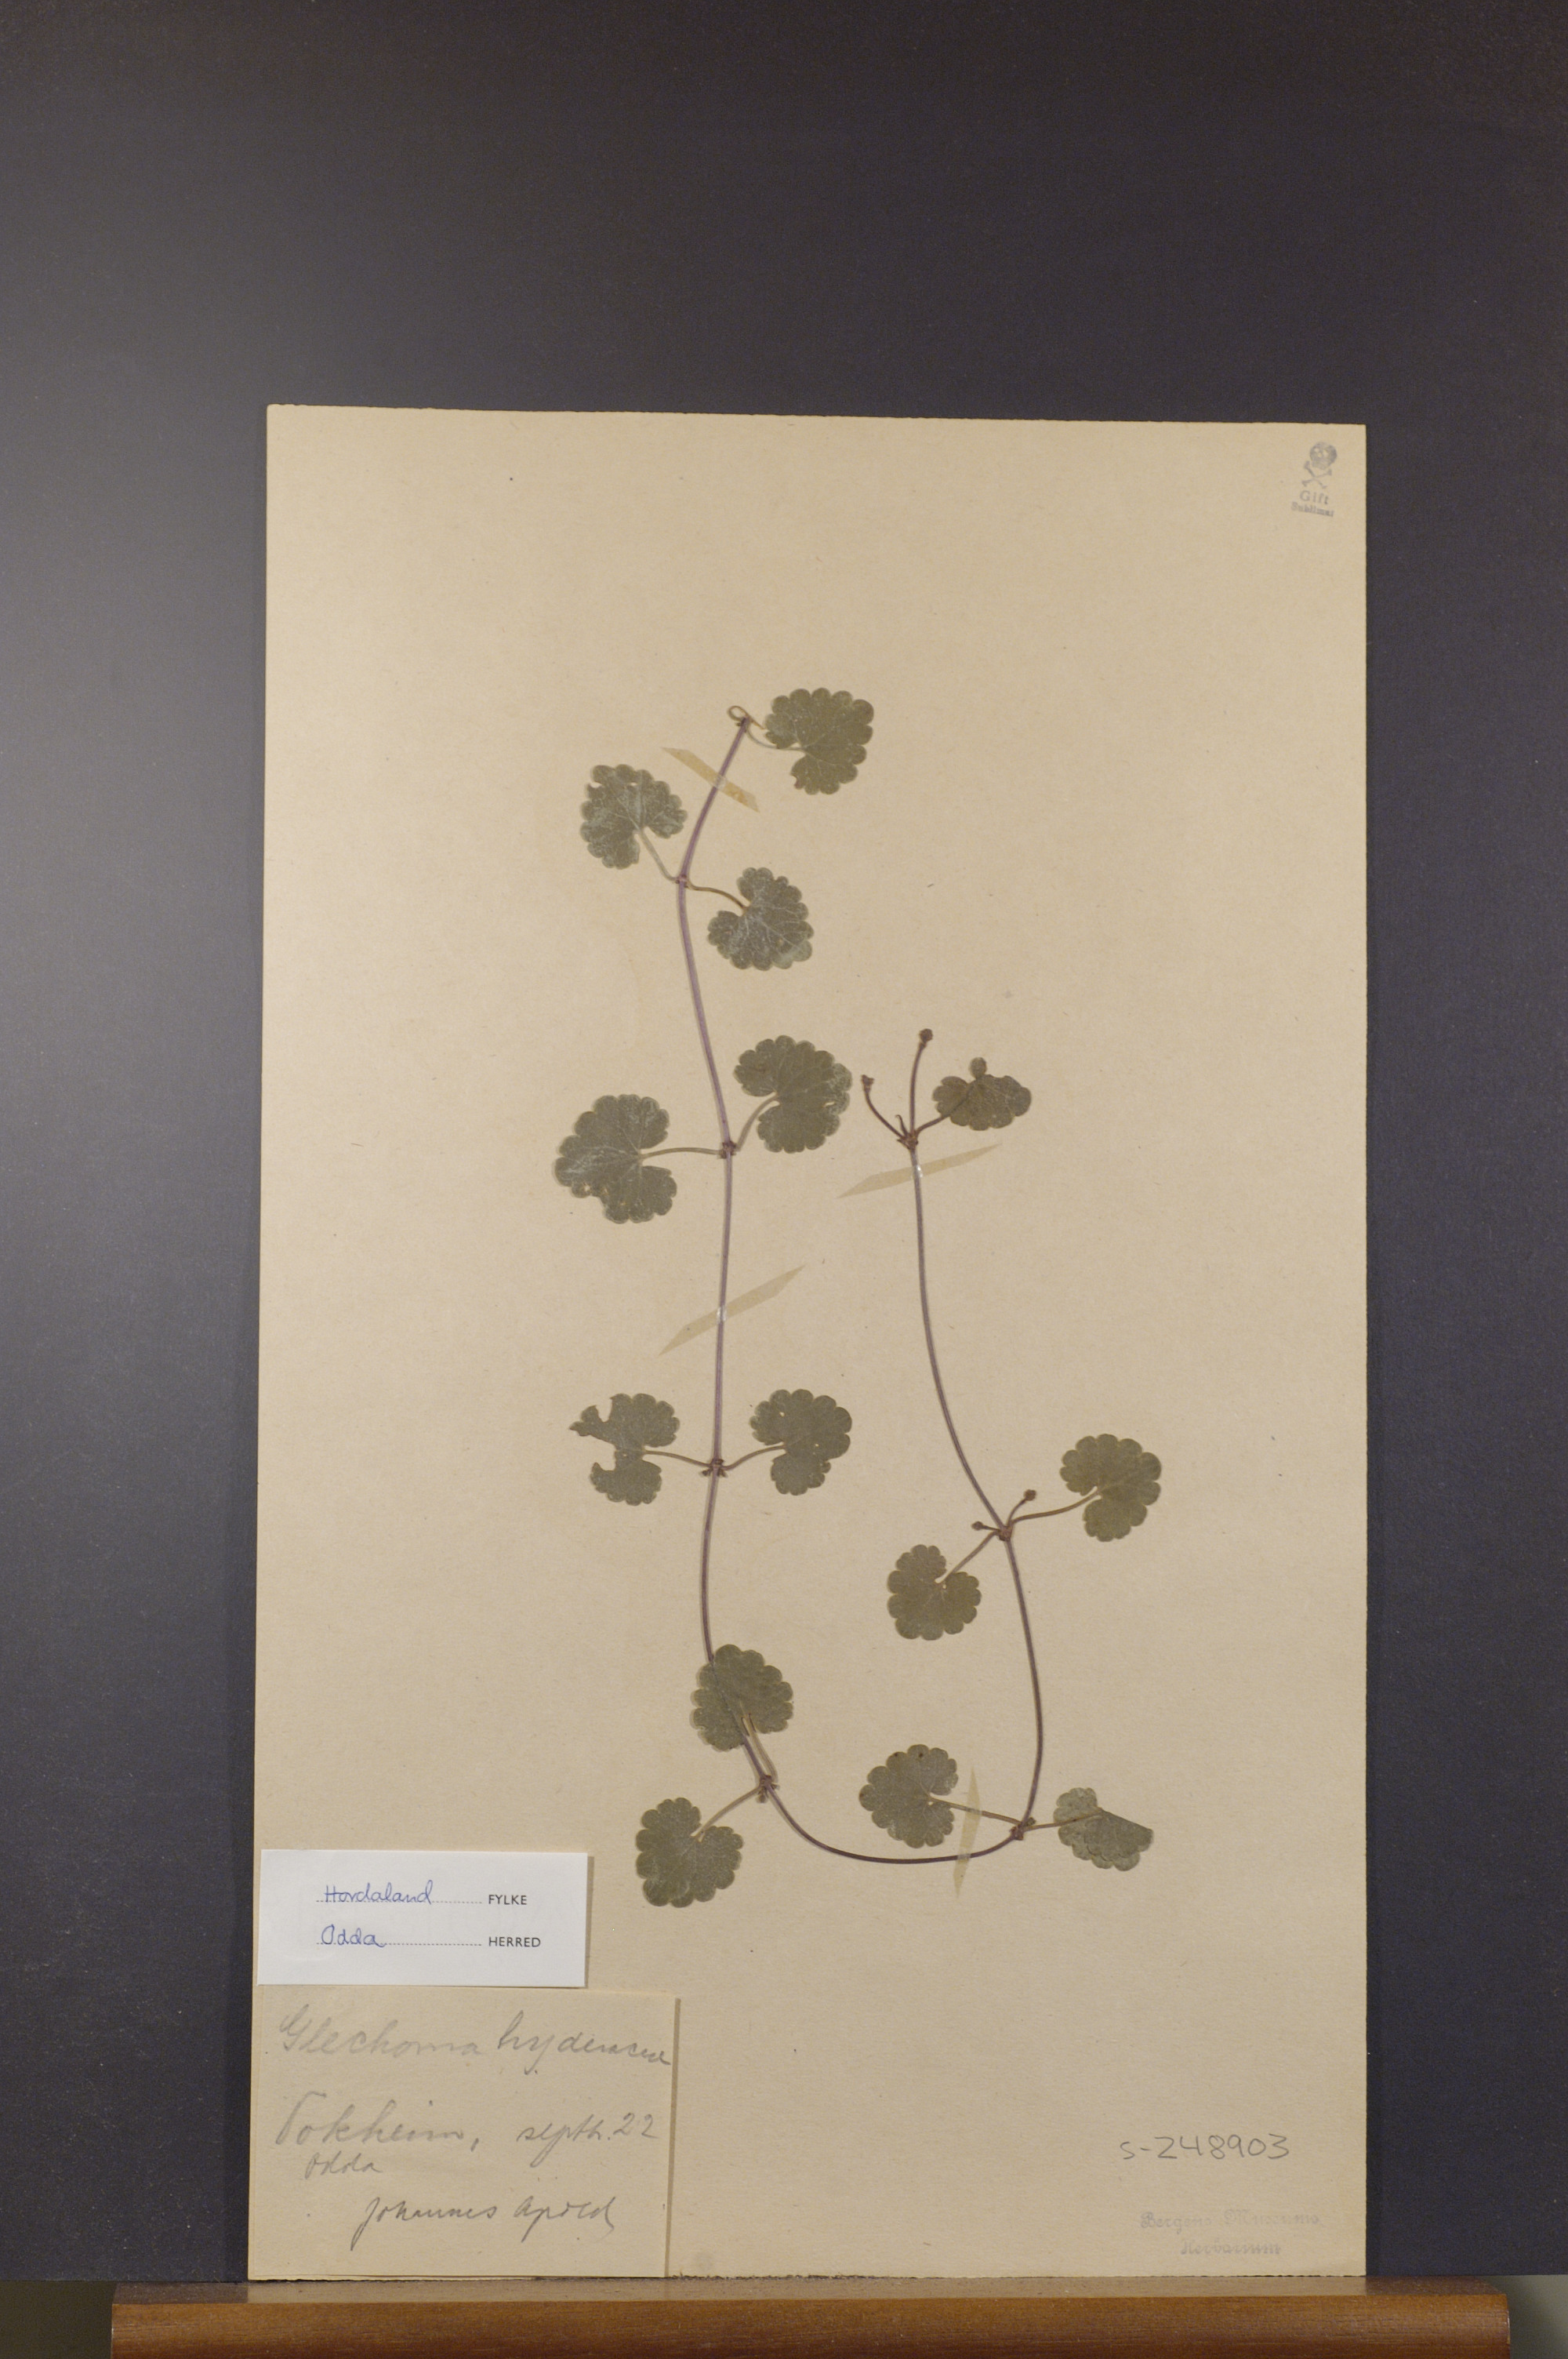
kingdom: Plantae
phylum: Tracheophyta
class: Magnoliopsida
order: Lamiales
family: Lamiaceae
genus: Glechoma
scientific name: Glechoma hederacea
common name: Ground ivy
